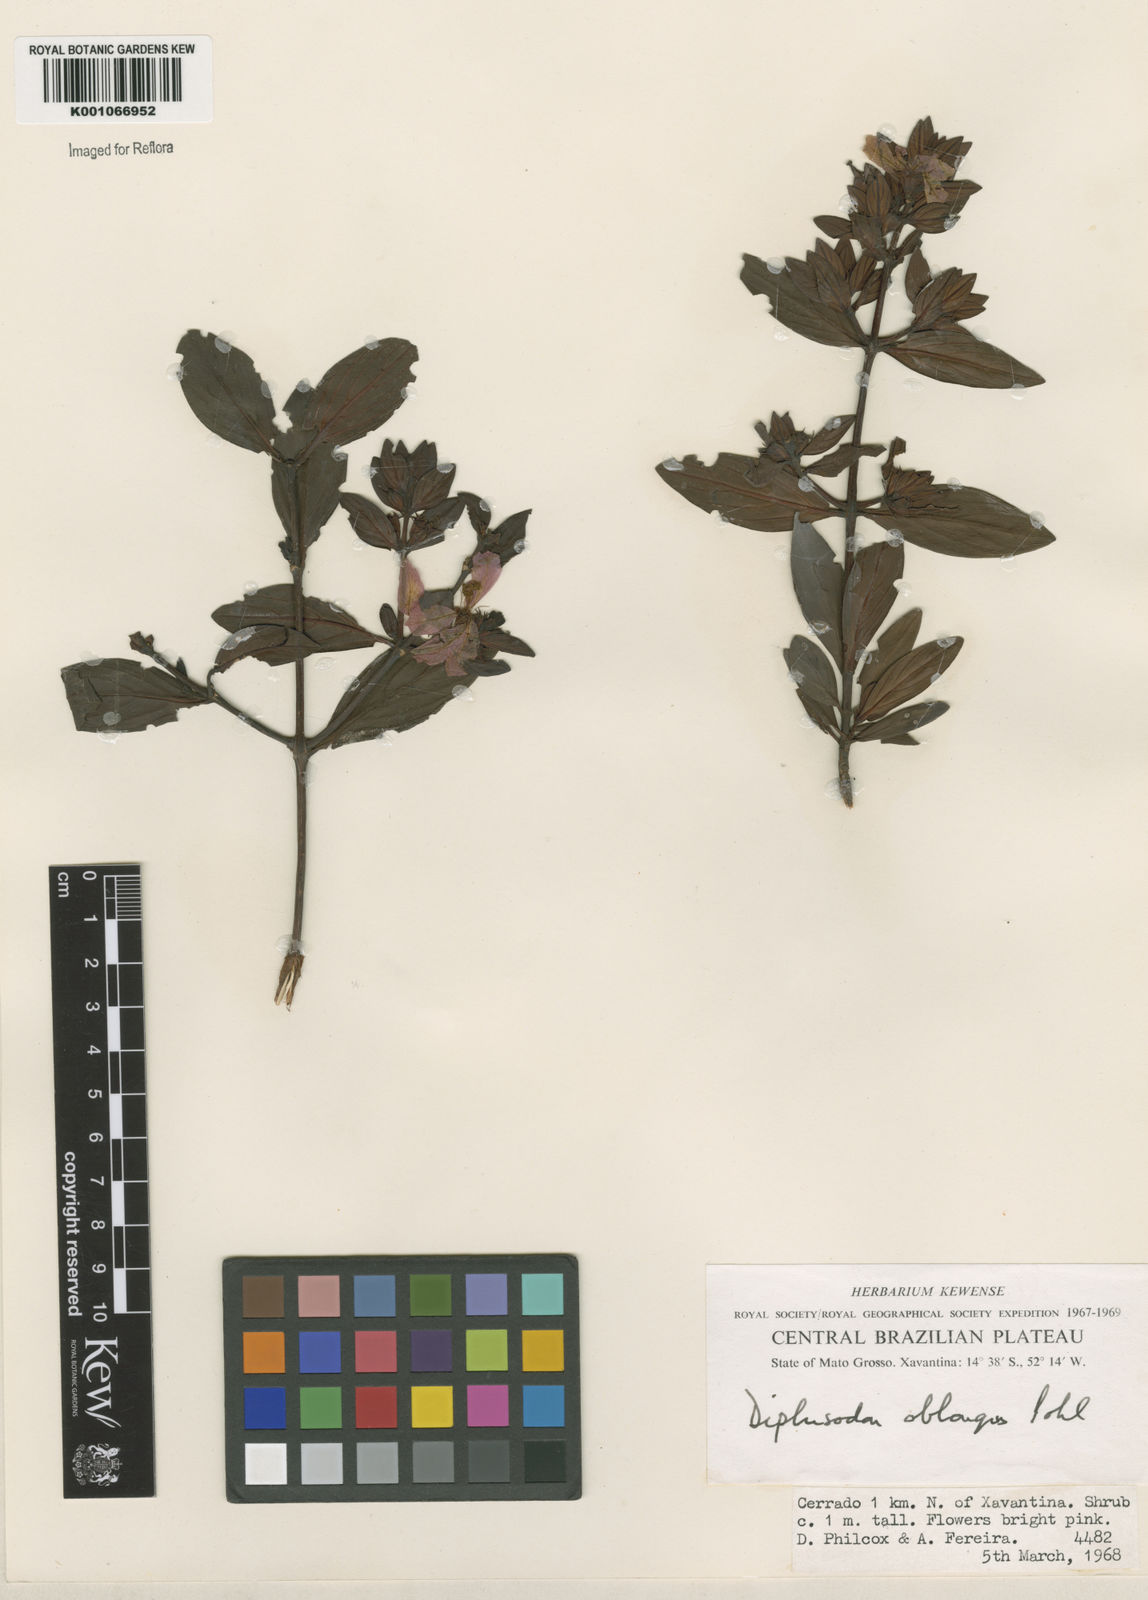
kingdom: Plantae
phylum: Tracheophyta
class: Magnoliopsida
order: Myrtales
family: Lythraceae
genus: Diplusodon
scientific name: Diplusodon oblongus
